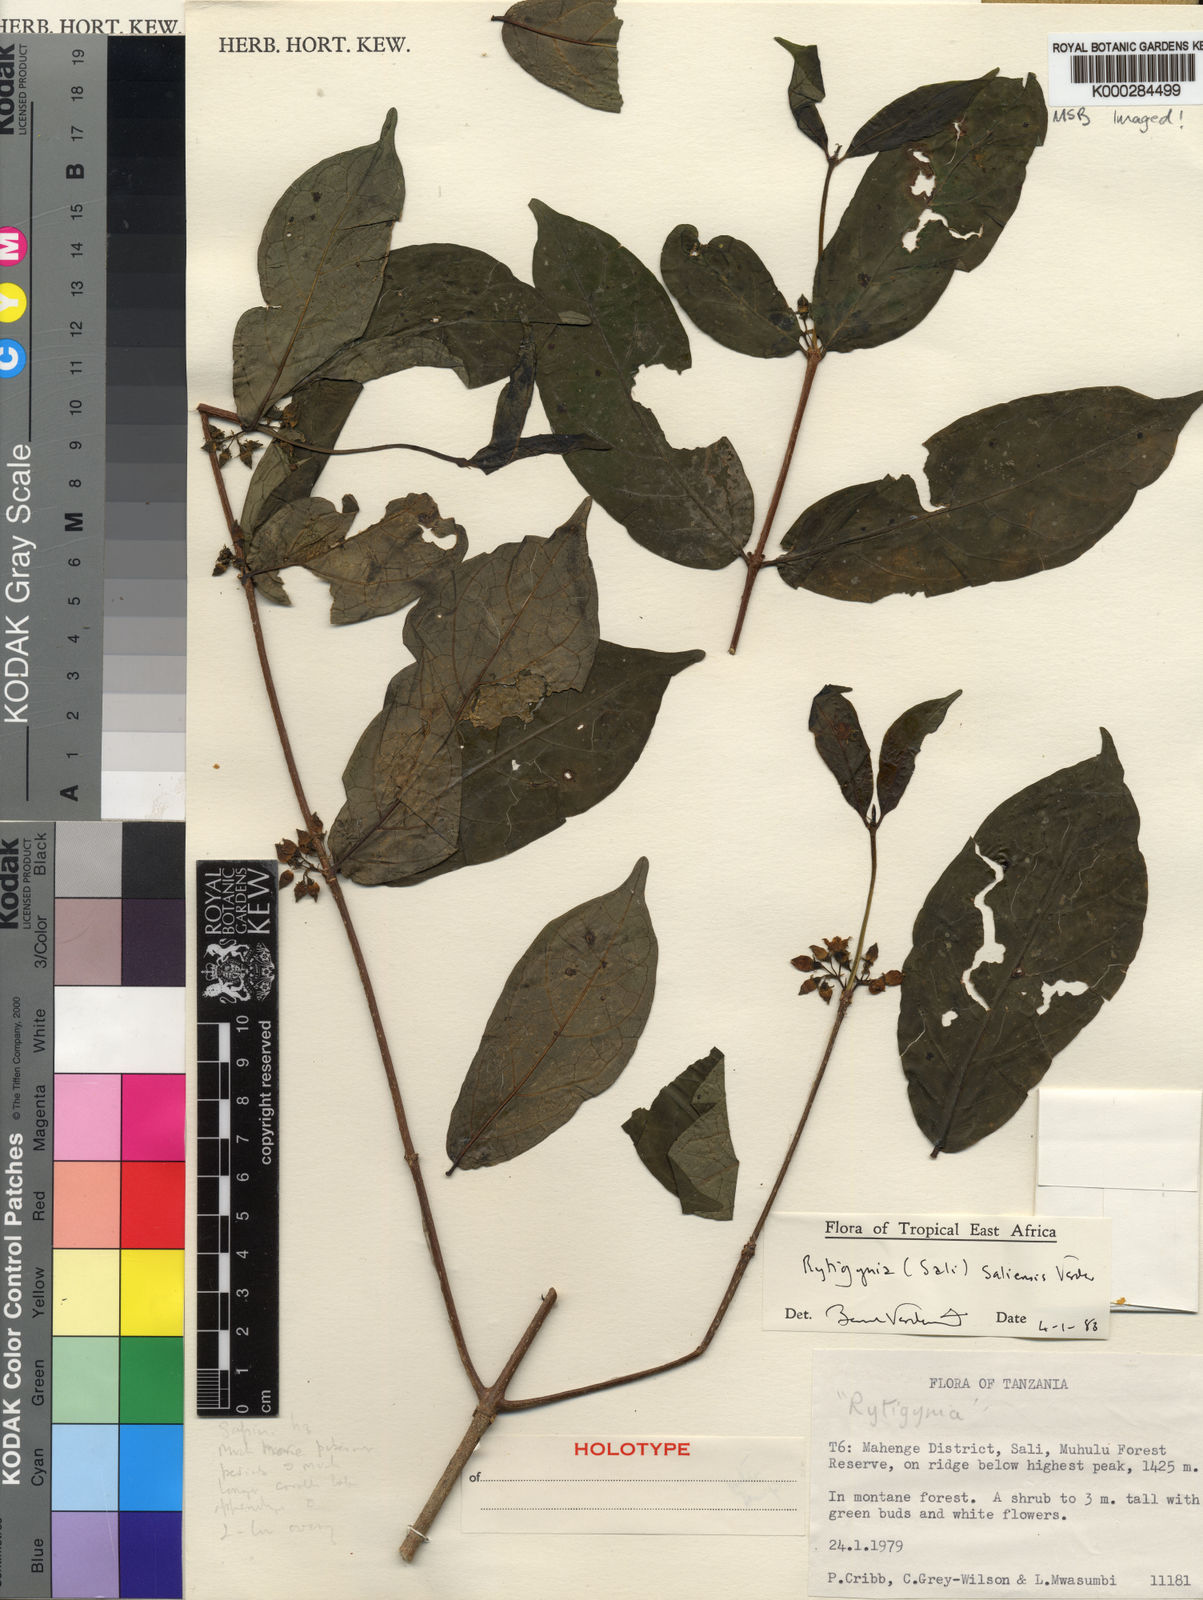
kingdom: Plantae
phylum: Tracheophyta
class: Magnoliopsida
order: Gentianales
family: Rubiaceae
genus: Rytigynia
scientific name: Rytigynia saliensis
